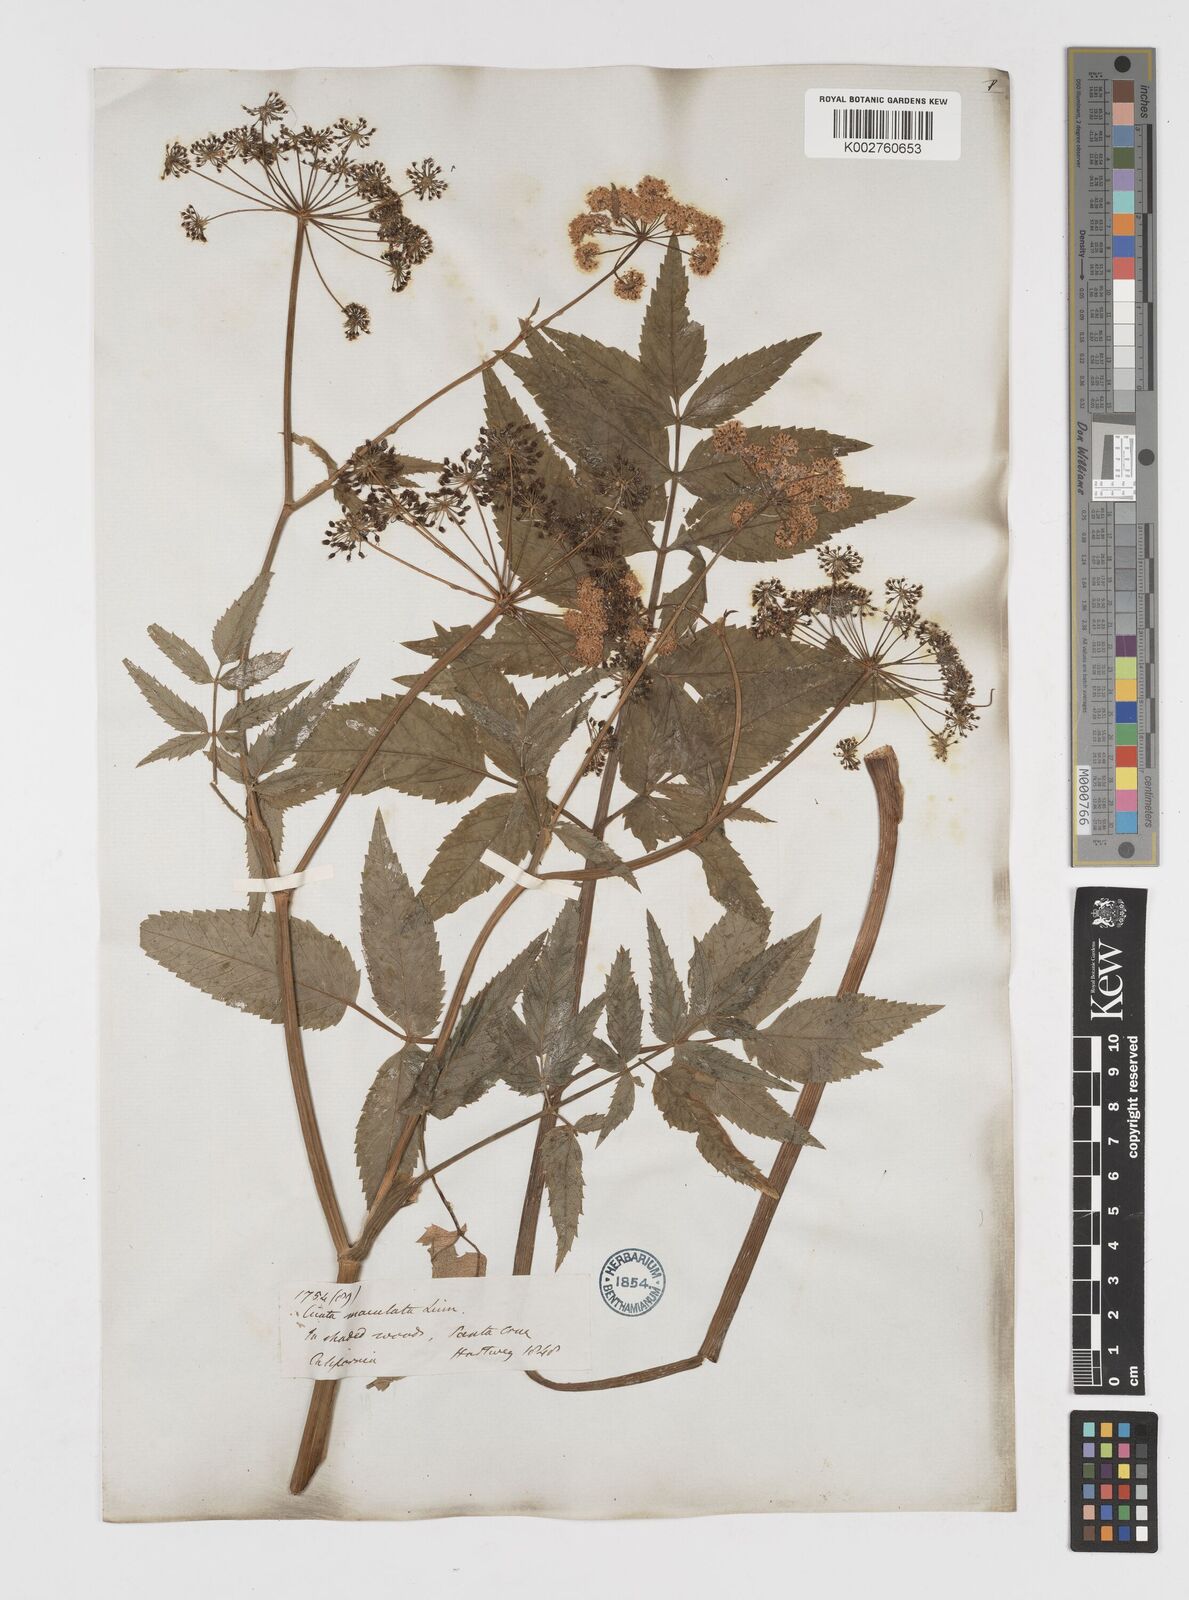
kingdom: Plantae
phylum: Tracheophyta
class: Magnoliopsida
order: Apiales
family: Apiaceae
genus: Cicuta
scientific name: Cicuta douglasii
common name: Western water-hemlock
